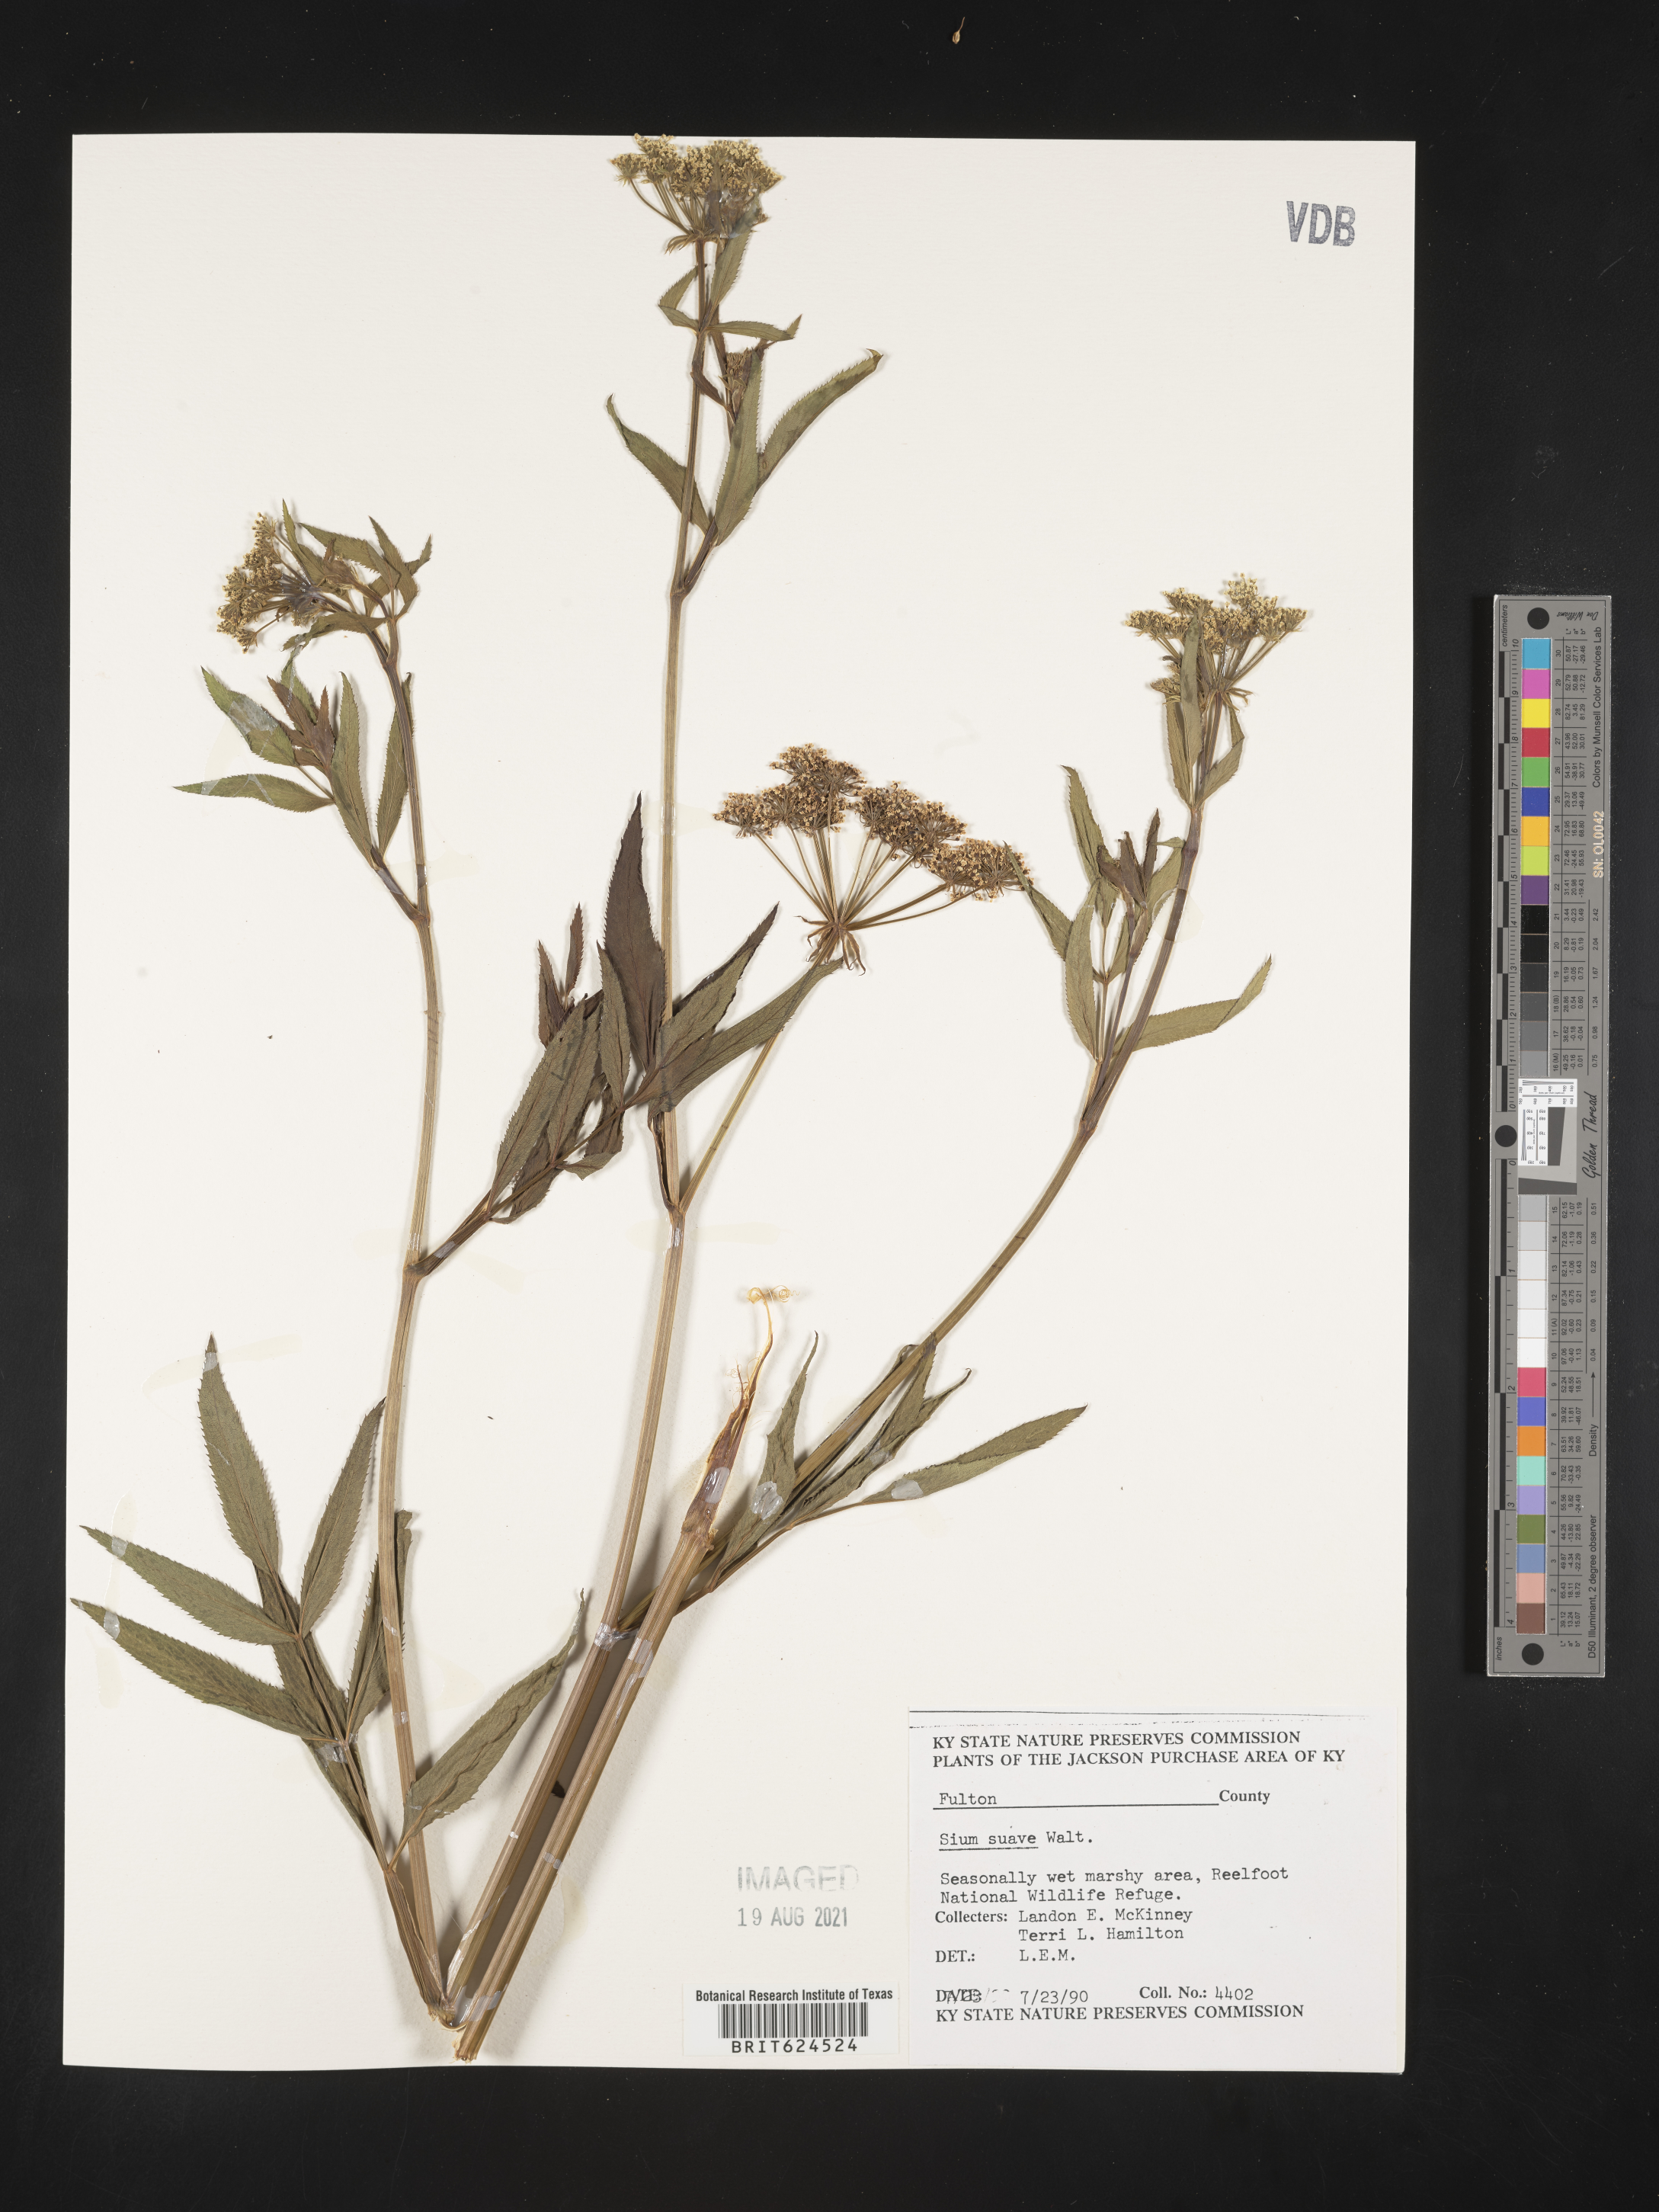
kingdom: Plantae
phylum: Tracheophyta
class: Magnoliopsida
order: Apiales
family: Apiaceae
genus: Sium
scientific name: Sium suave
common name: Hemlock water-parsnip
